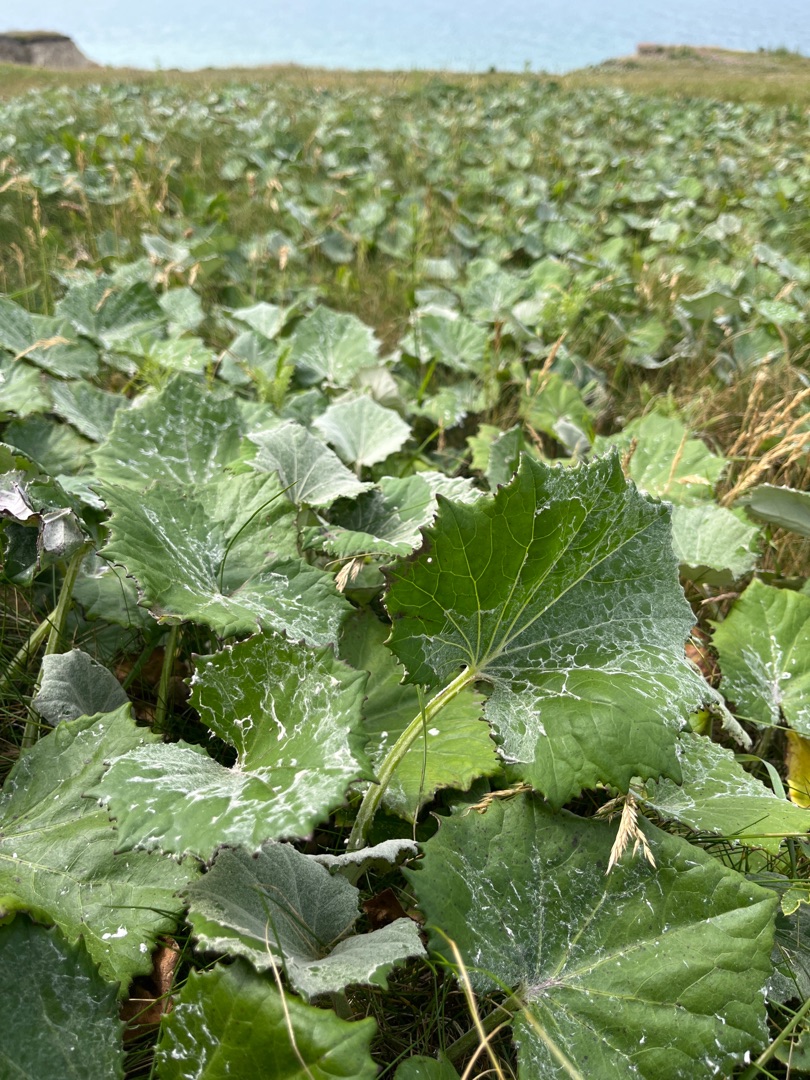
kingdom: Plantae
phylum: Tracheophyta
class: Magnoliopsida
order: Asterales
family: Asteraceae
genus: Tussilago
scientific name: Tussilago farfara
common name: Følfod
